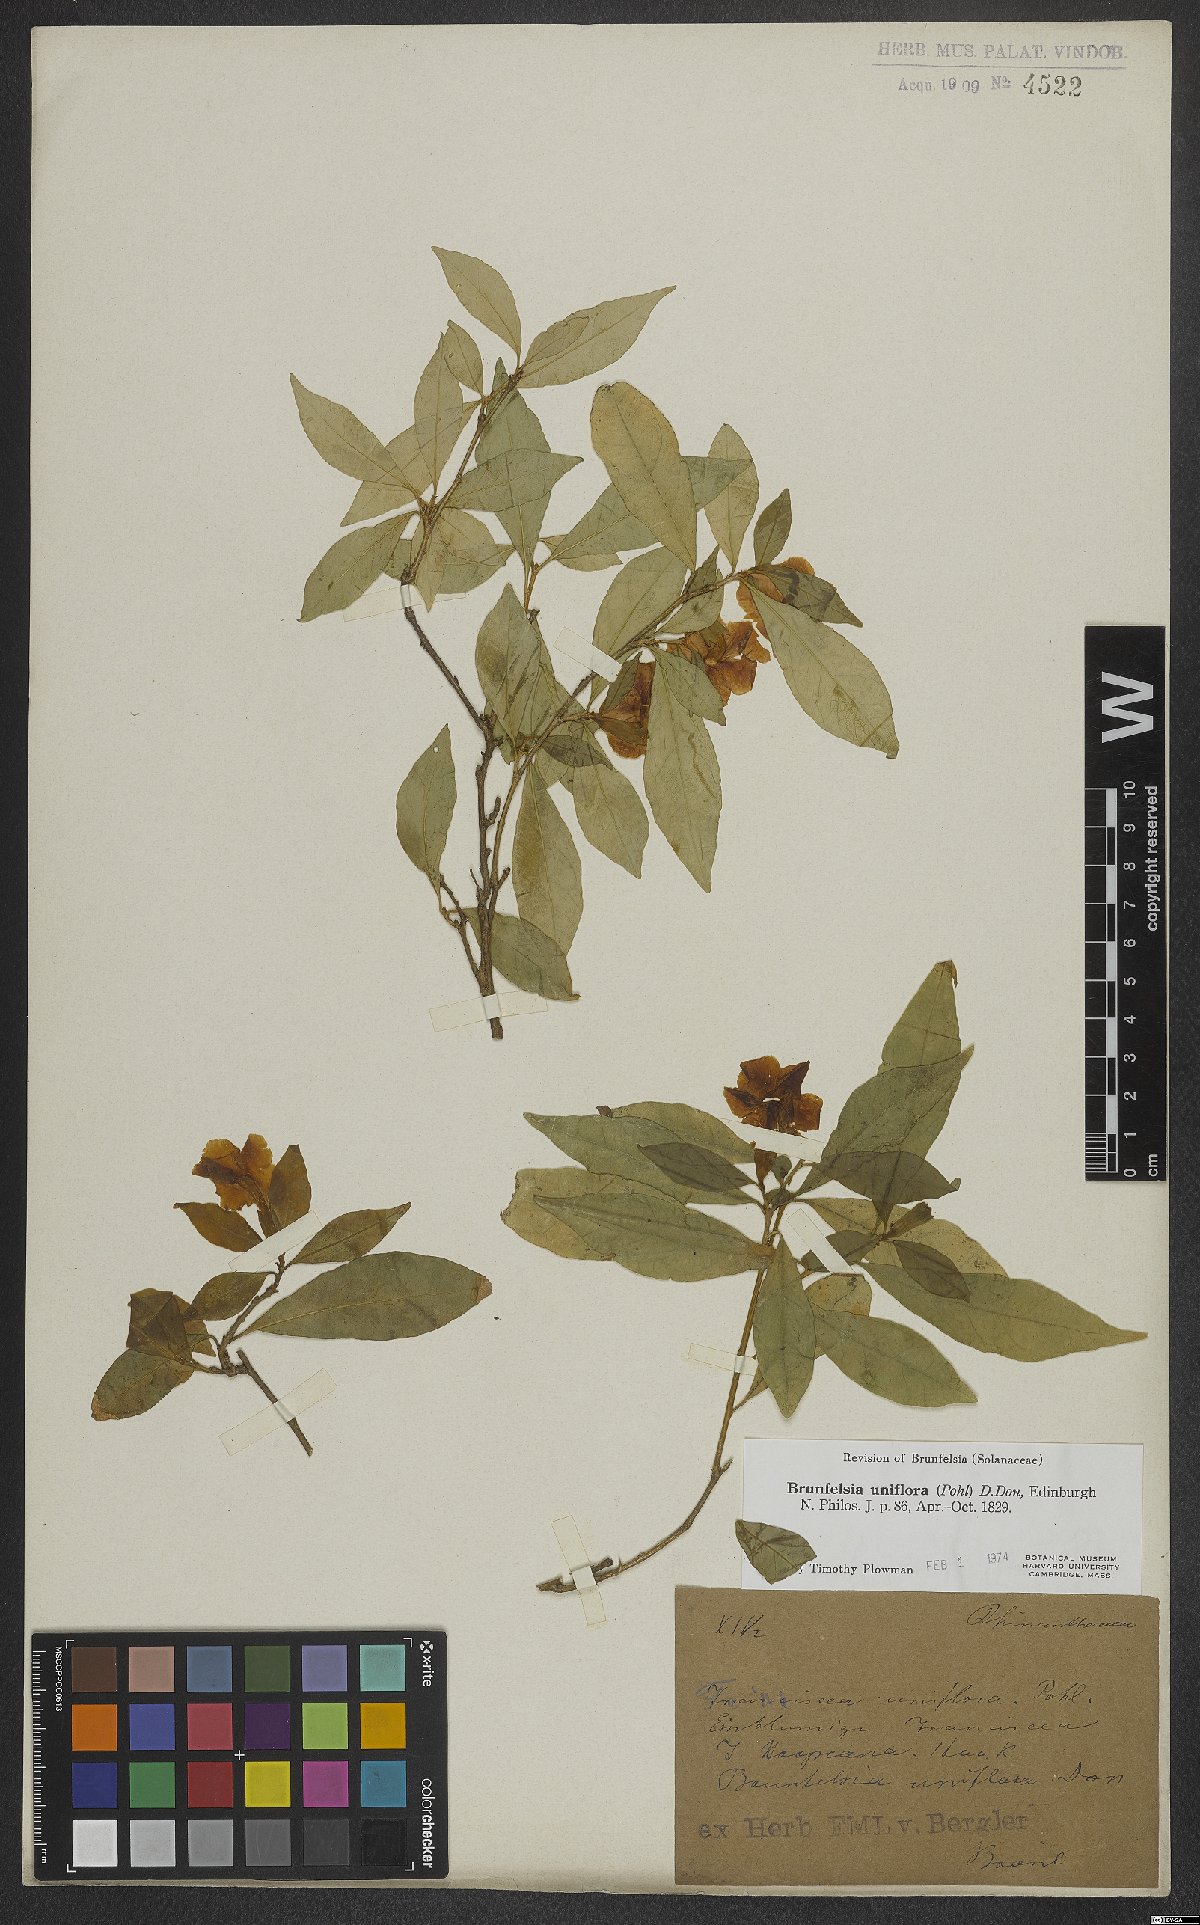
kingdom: Plantae
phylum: Tracheophyta
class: Magnoliopsida
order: Solanales
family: Solanaceae
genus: Brunfelsia
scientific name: Brunfelsia uniflora
